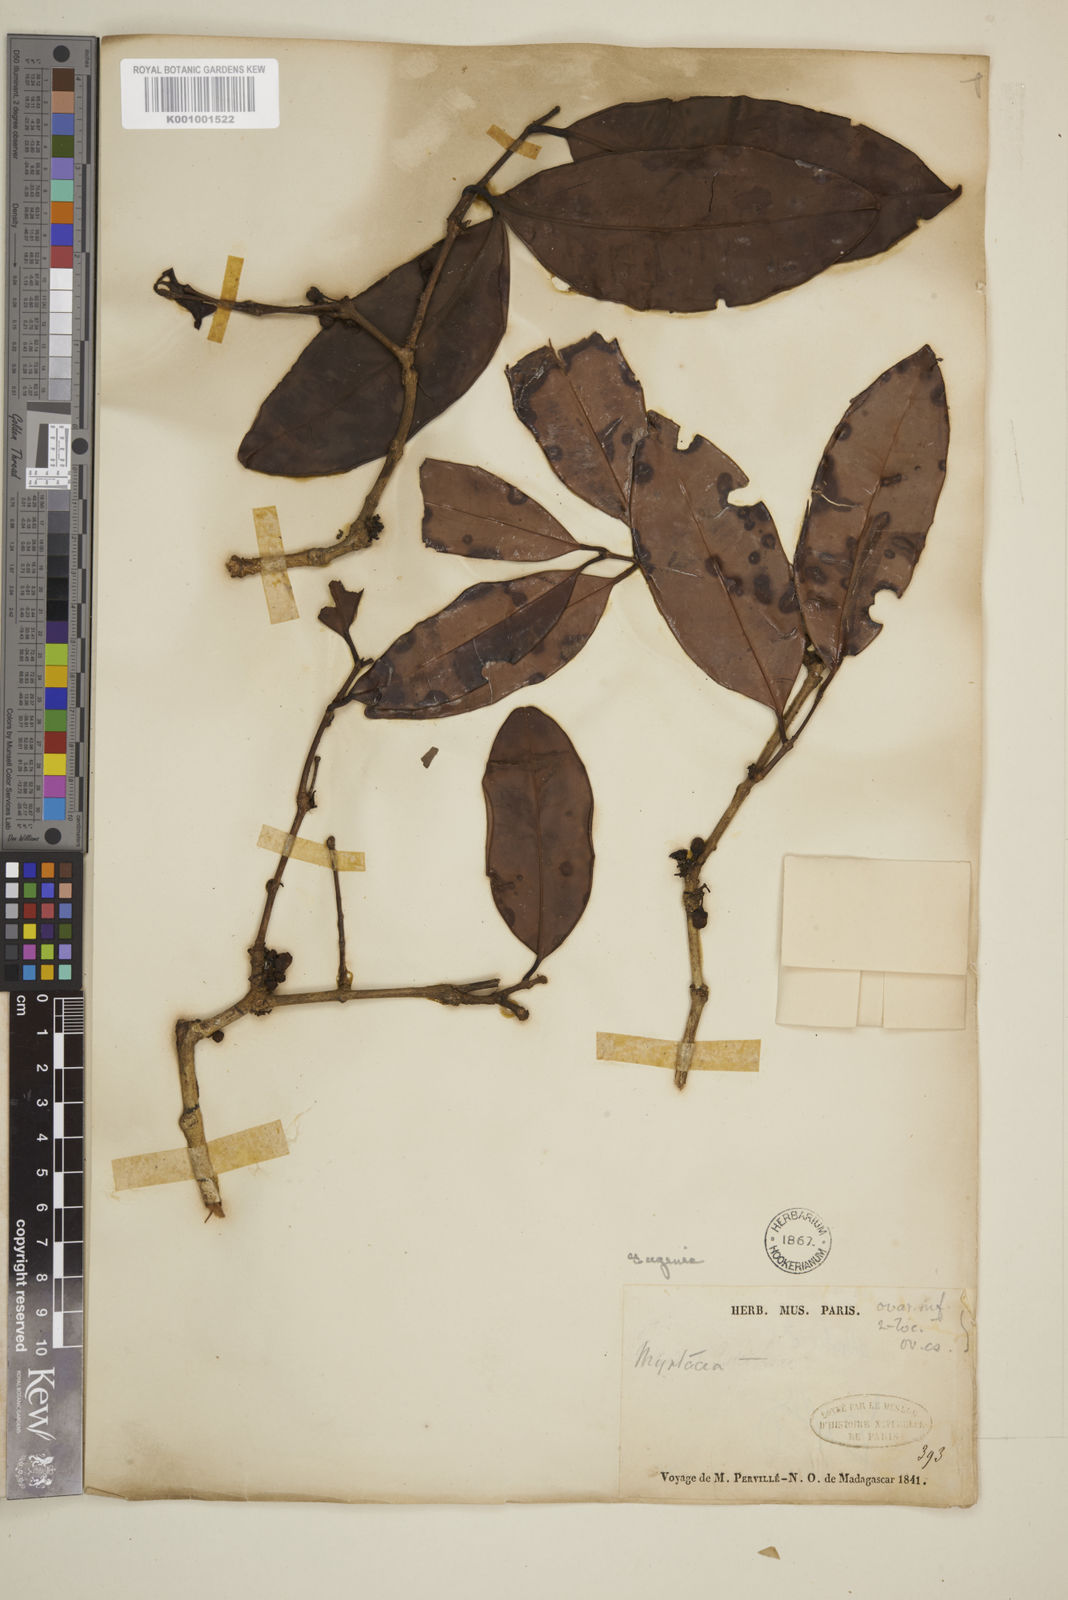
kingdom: Plantae
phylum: Tracheophyta
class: Magnoliopsida
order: Myrtales
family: Myrtaceae
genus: Eugenia
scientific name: Eugenia
